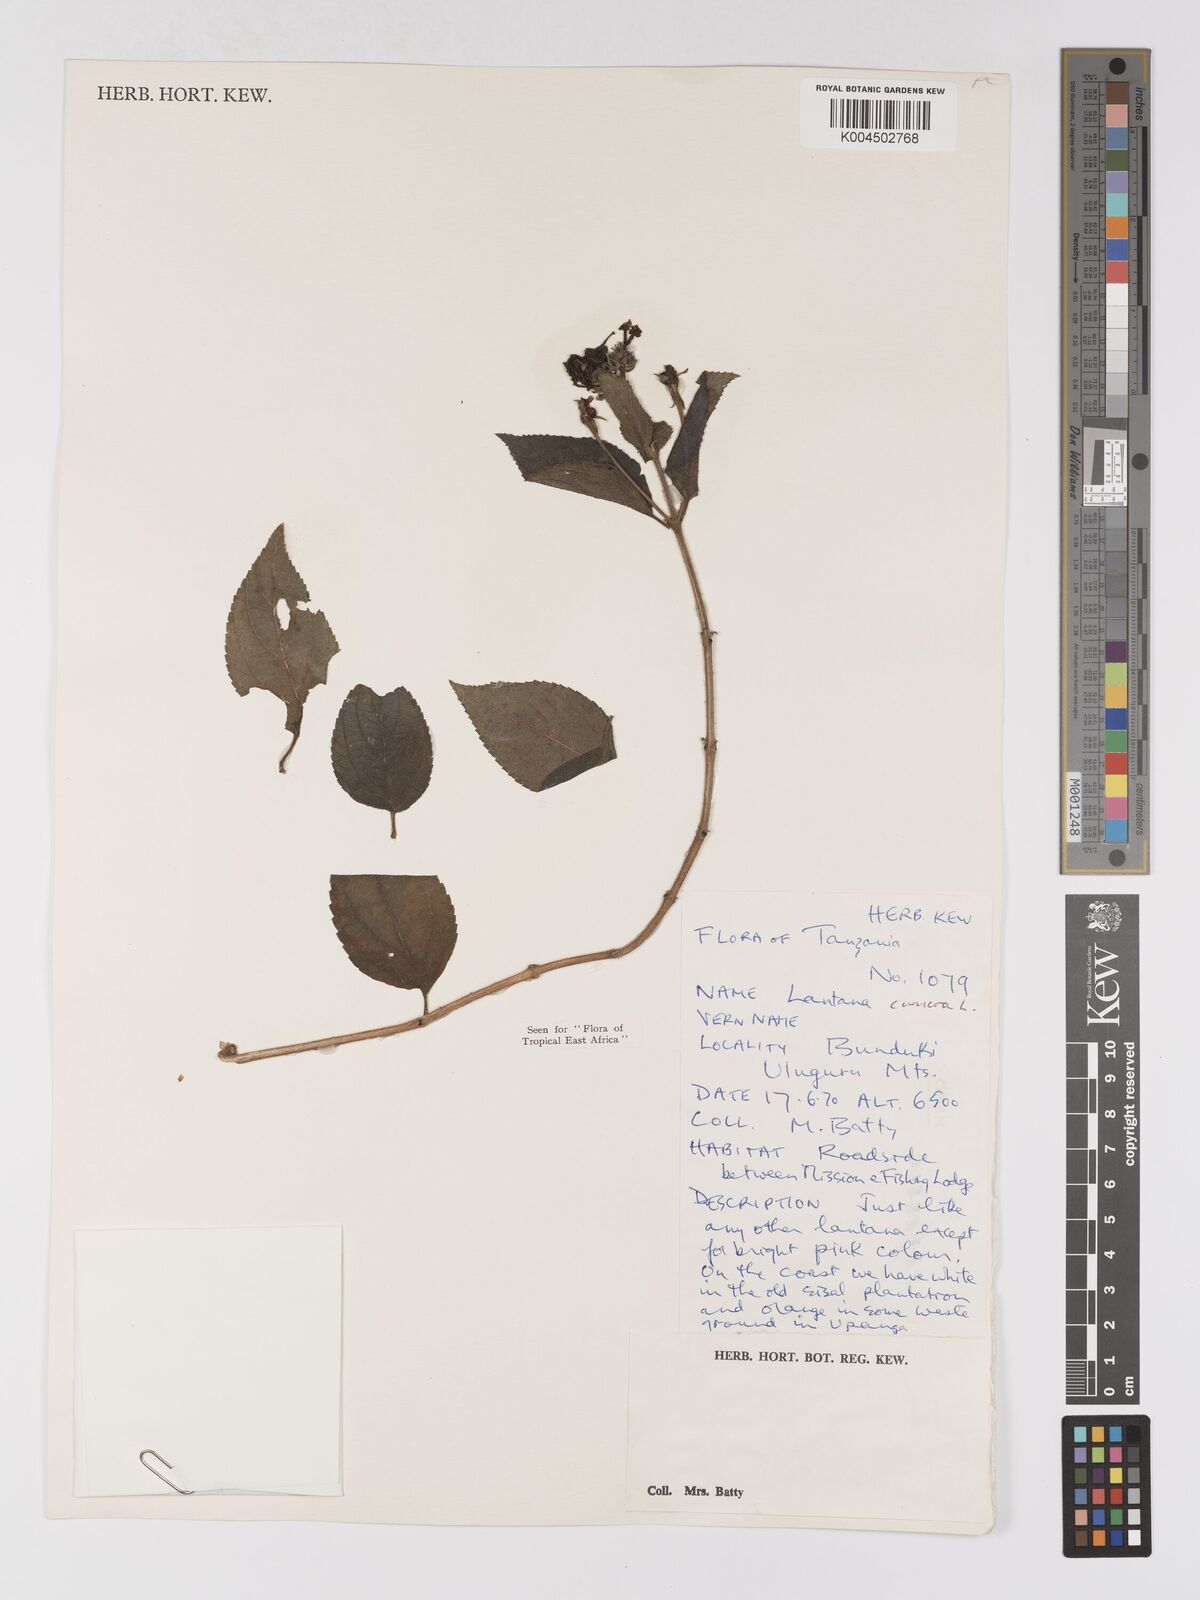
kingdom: Plantae
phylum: Tracheophyta
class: Magnoliopsida
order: Lamiales
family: Verbenaceae
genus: Lantana
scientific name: Lantana camara
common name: Lantana
